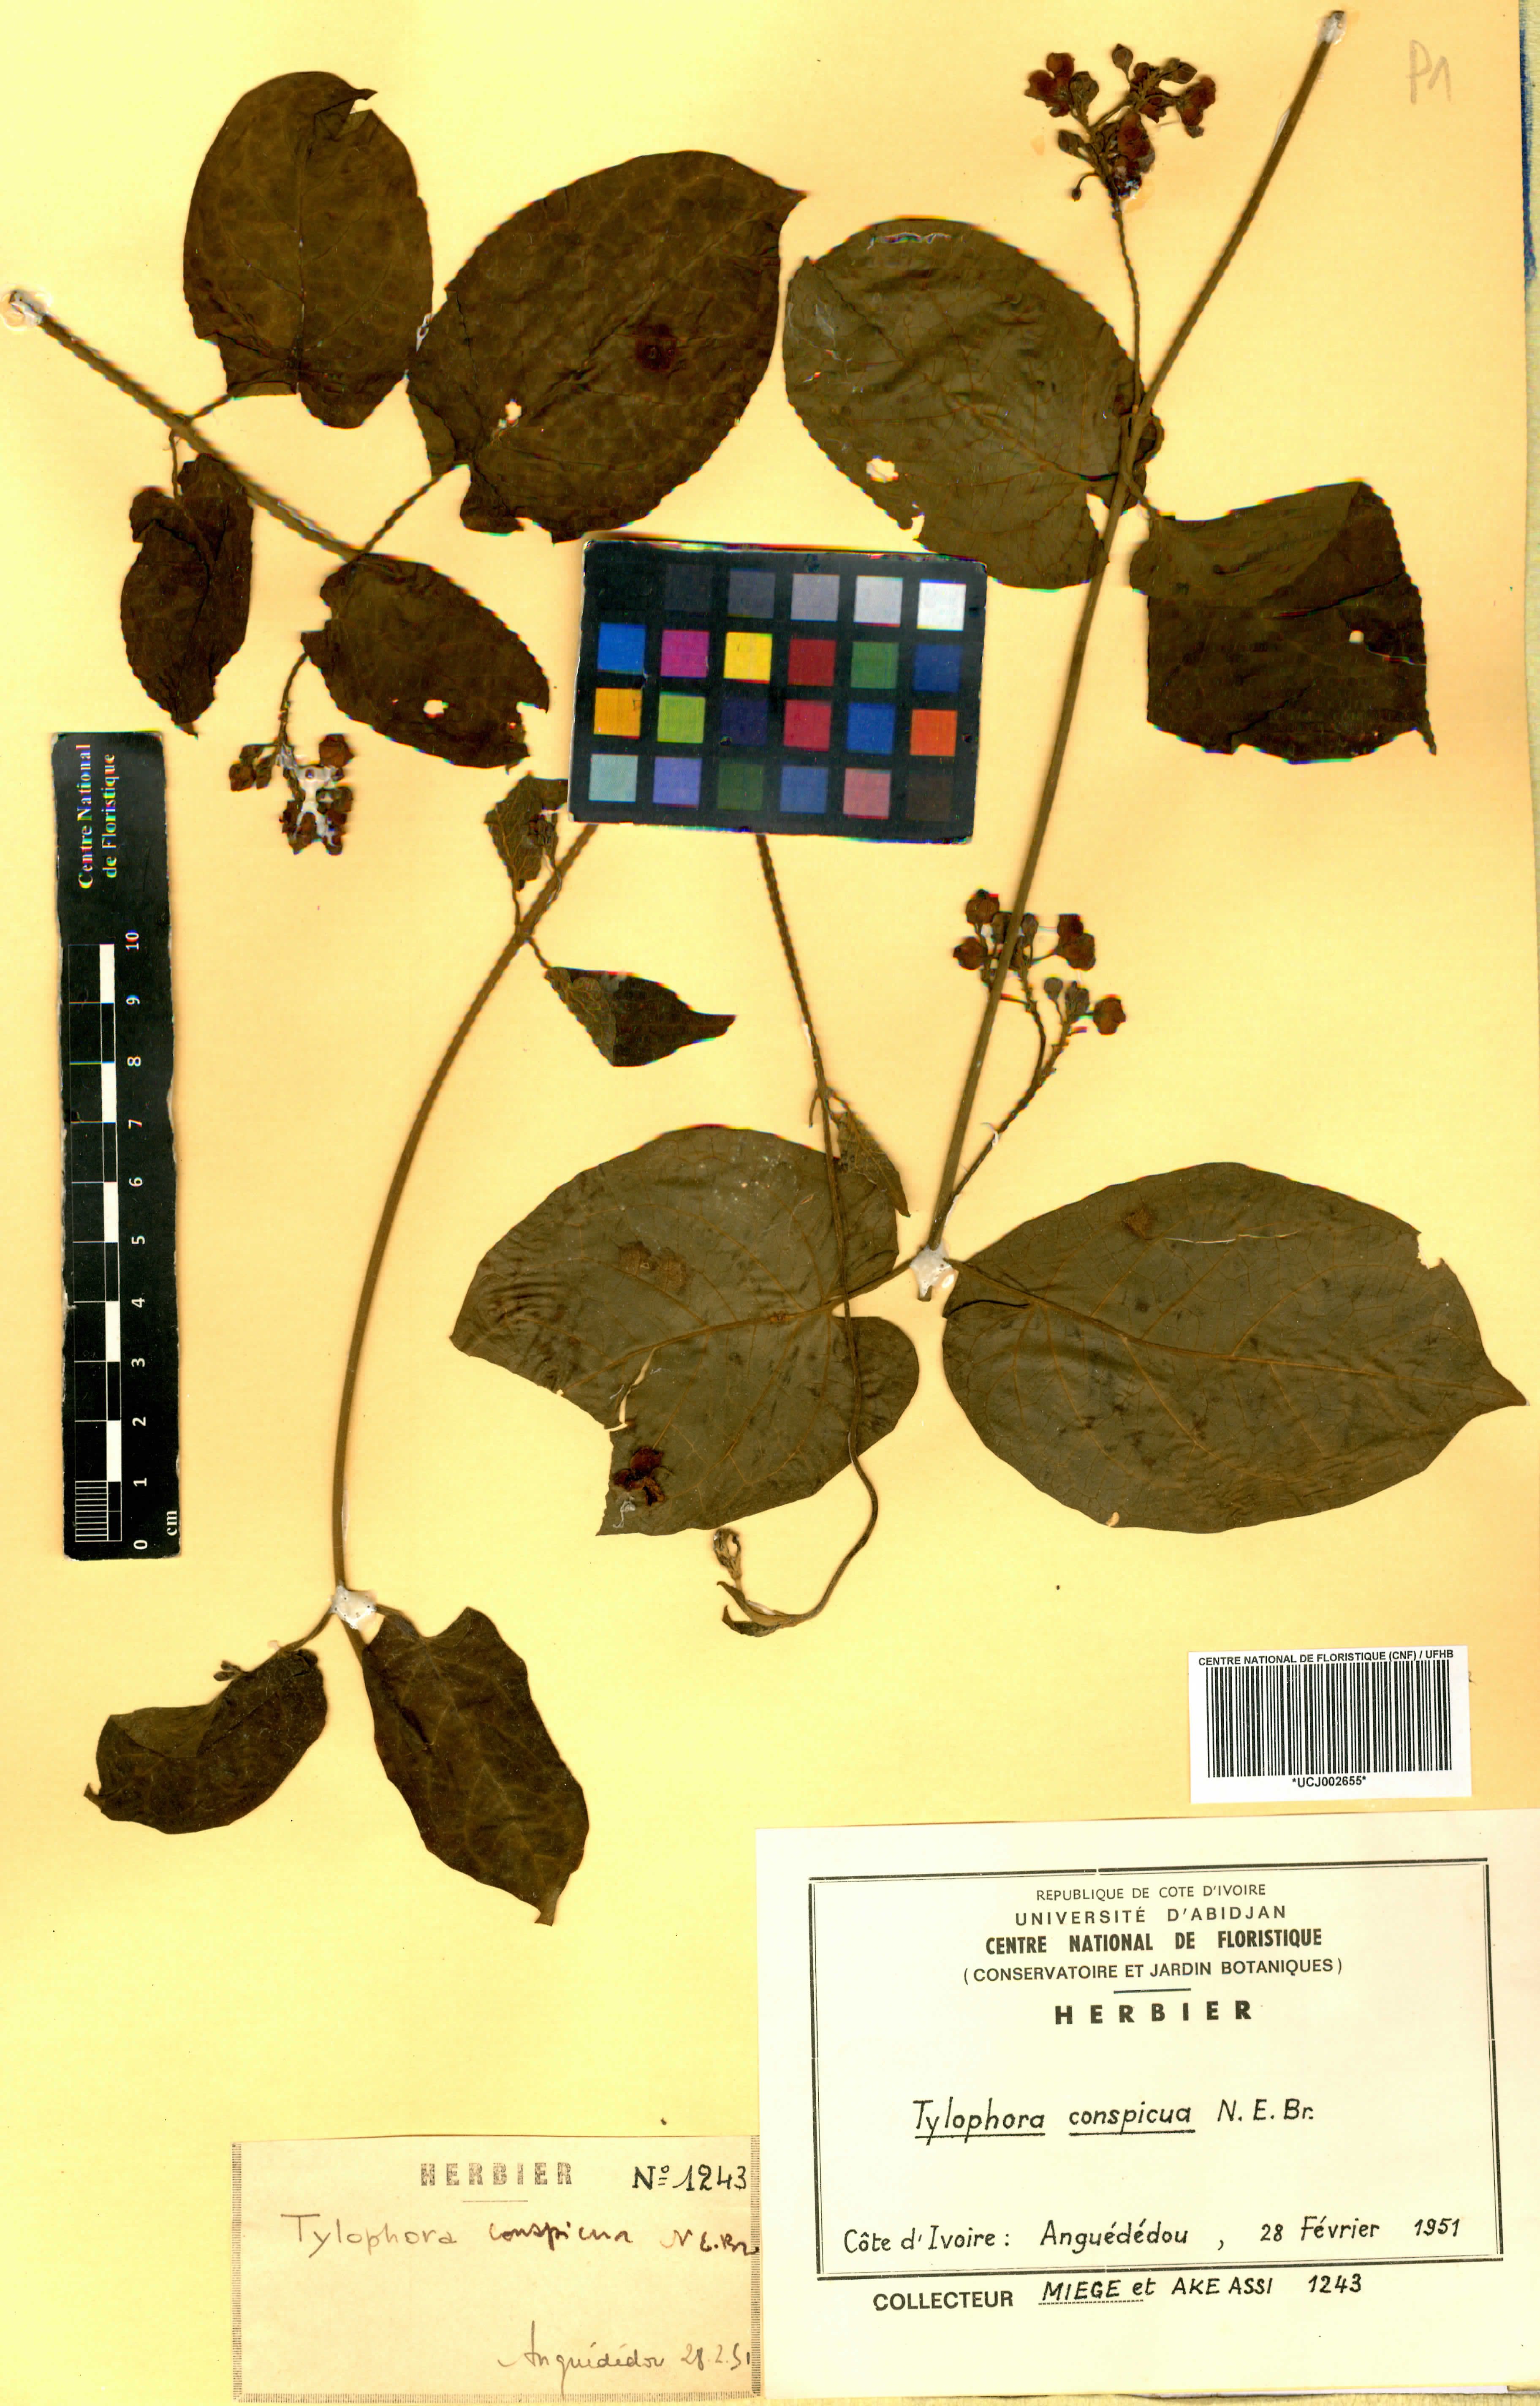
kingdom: Plantae
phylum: Tracheophyta
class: Magnoliopsida
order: Gentianales
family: Apocynaceae
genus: Vincetoxicum
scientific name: Vincetoxicum conspicuum
